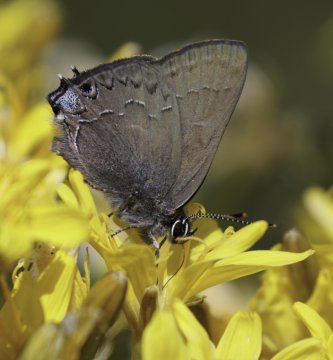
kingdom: Animalia
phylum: Arthropoda
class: Insecta
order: Lepidoptera
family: Lycaenidae
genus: Strymon
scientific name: Strymon saepium
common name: Hedgerow Hairstreak
